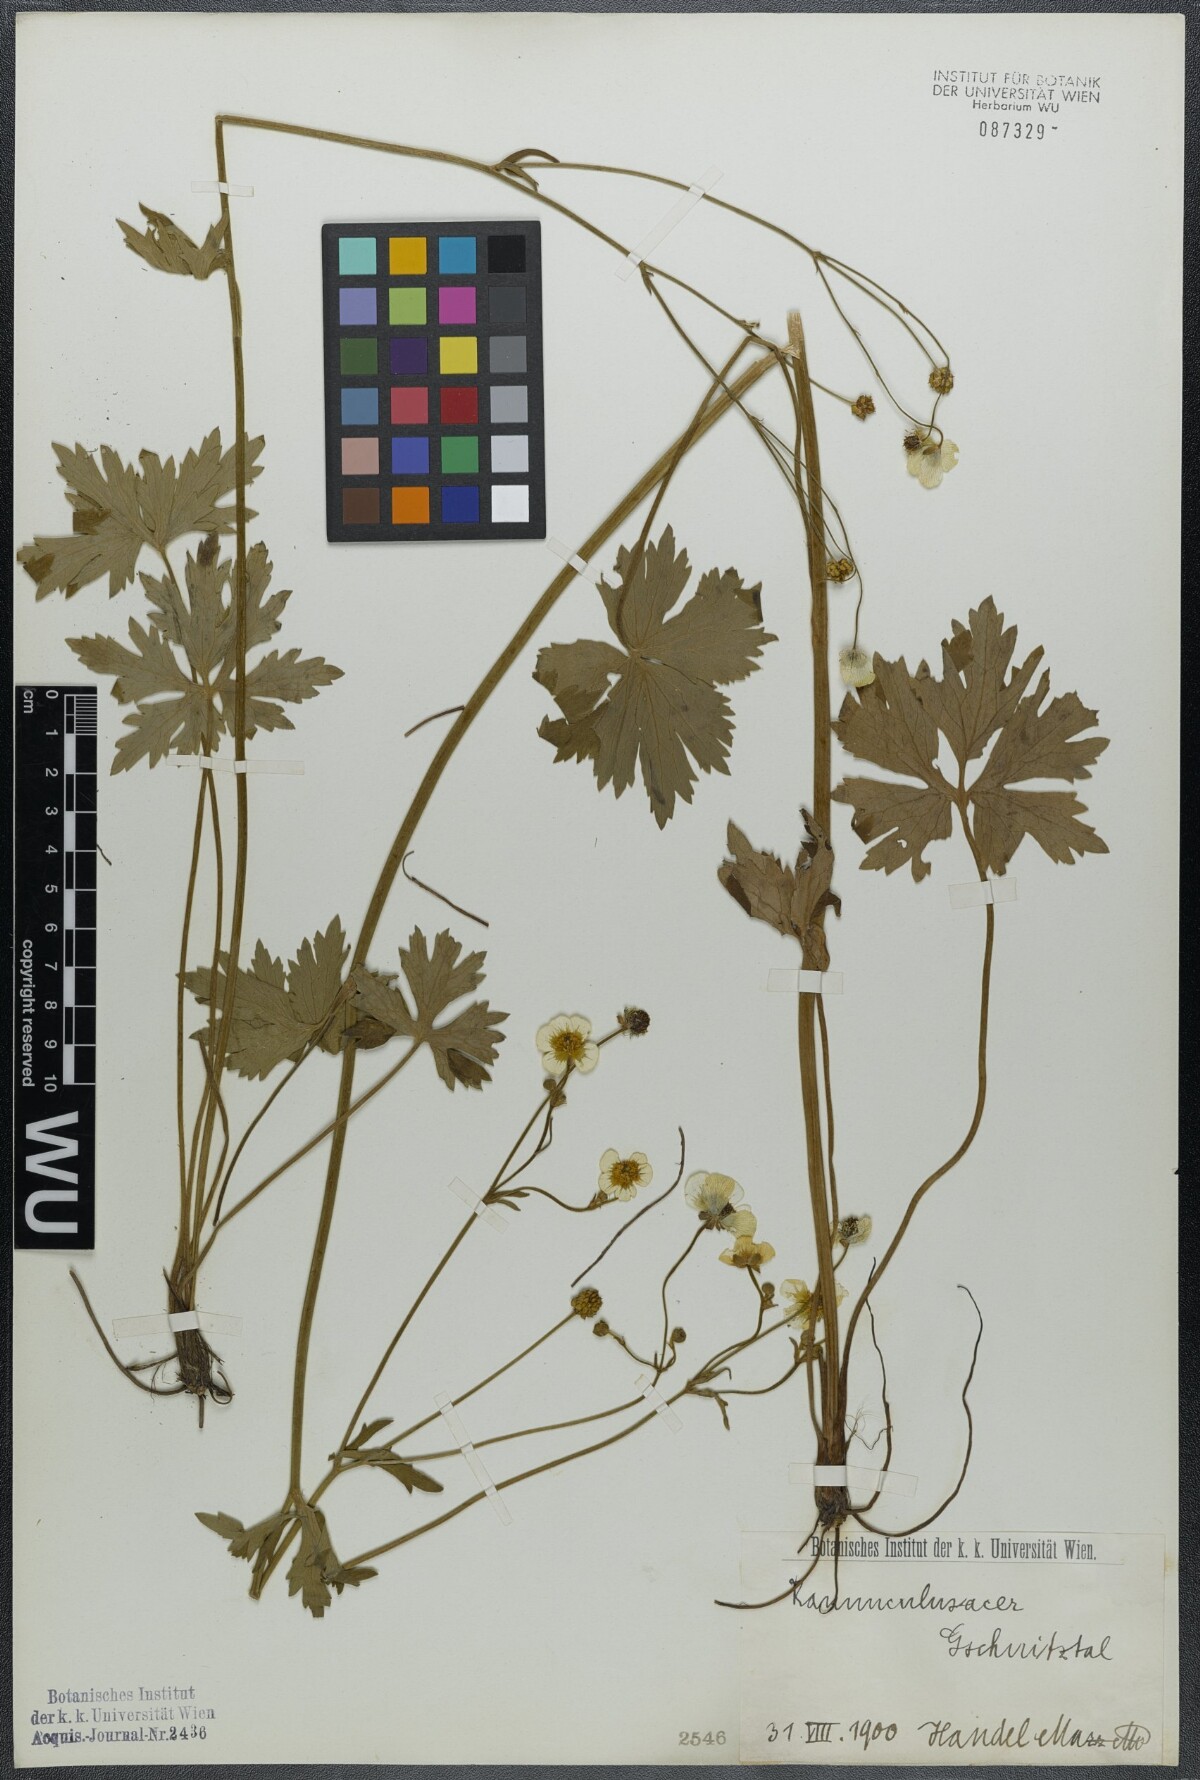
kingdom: Plantae
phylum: Tracheophyta
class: Magnoliopsida
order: Ranunculales
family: Ranunculaceae
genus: Ranunculus
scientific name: Ranunculus acris
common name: Meadow buttercup
